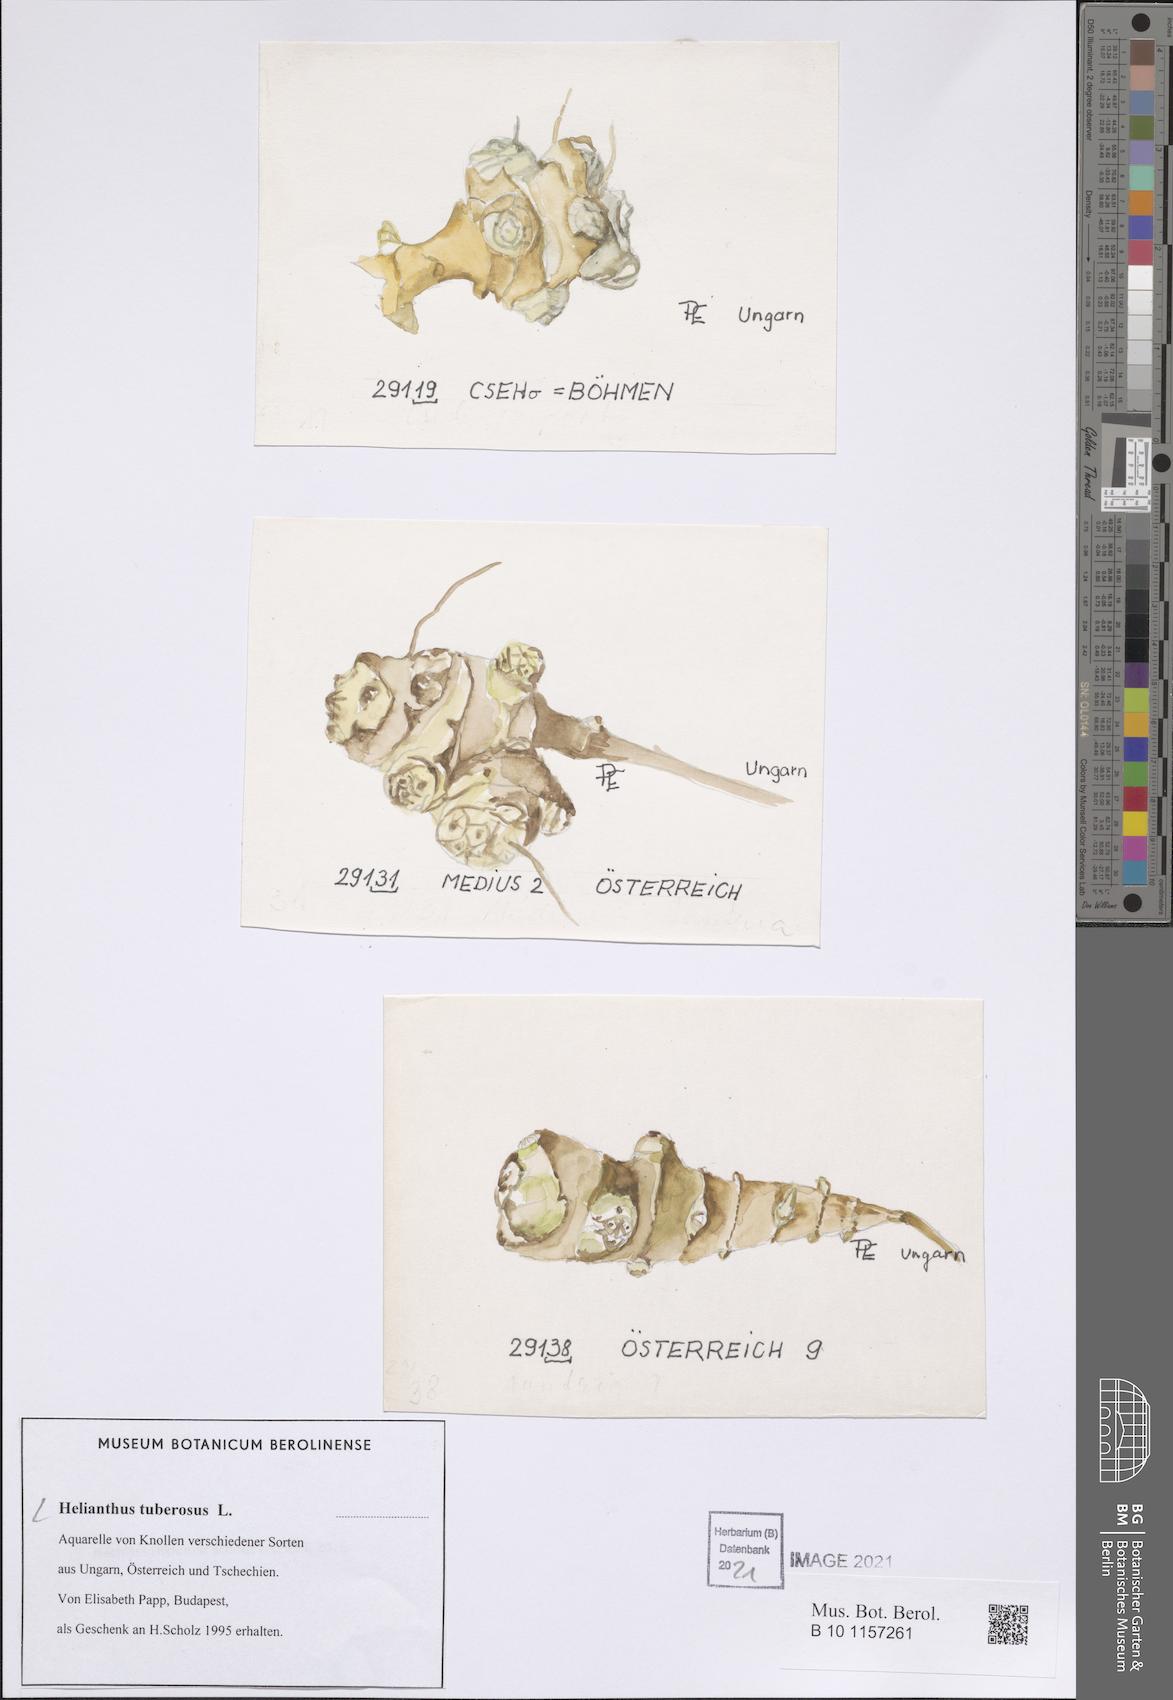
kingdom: Plantae
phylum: Tracheophyta
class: Magnoliopsida
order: Asterales
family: Asteraceae
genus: Helianthus
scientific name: Helianthus tuberosus
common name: Jerusalem artichoke
